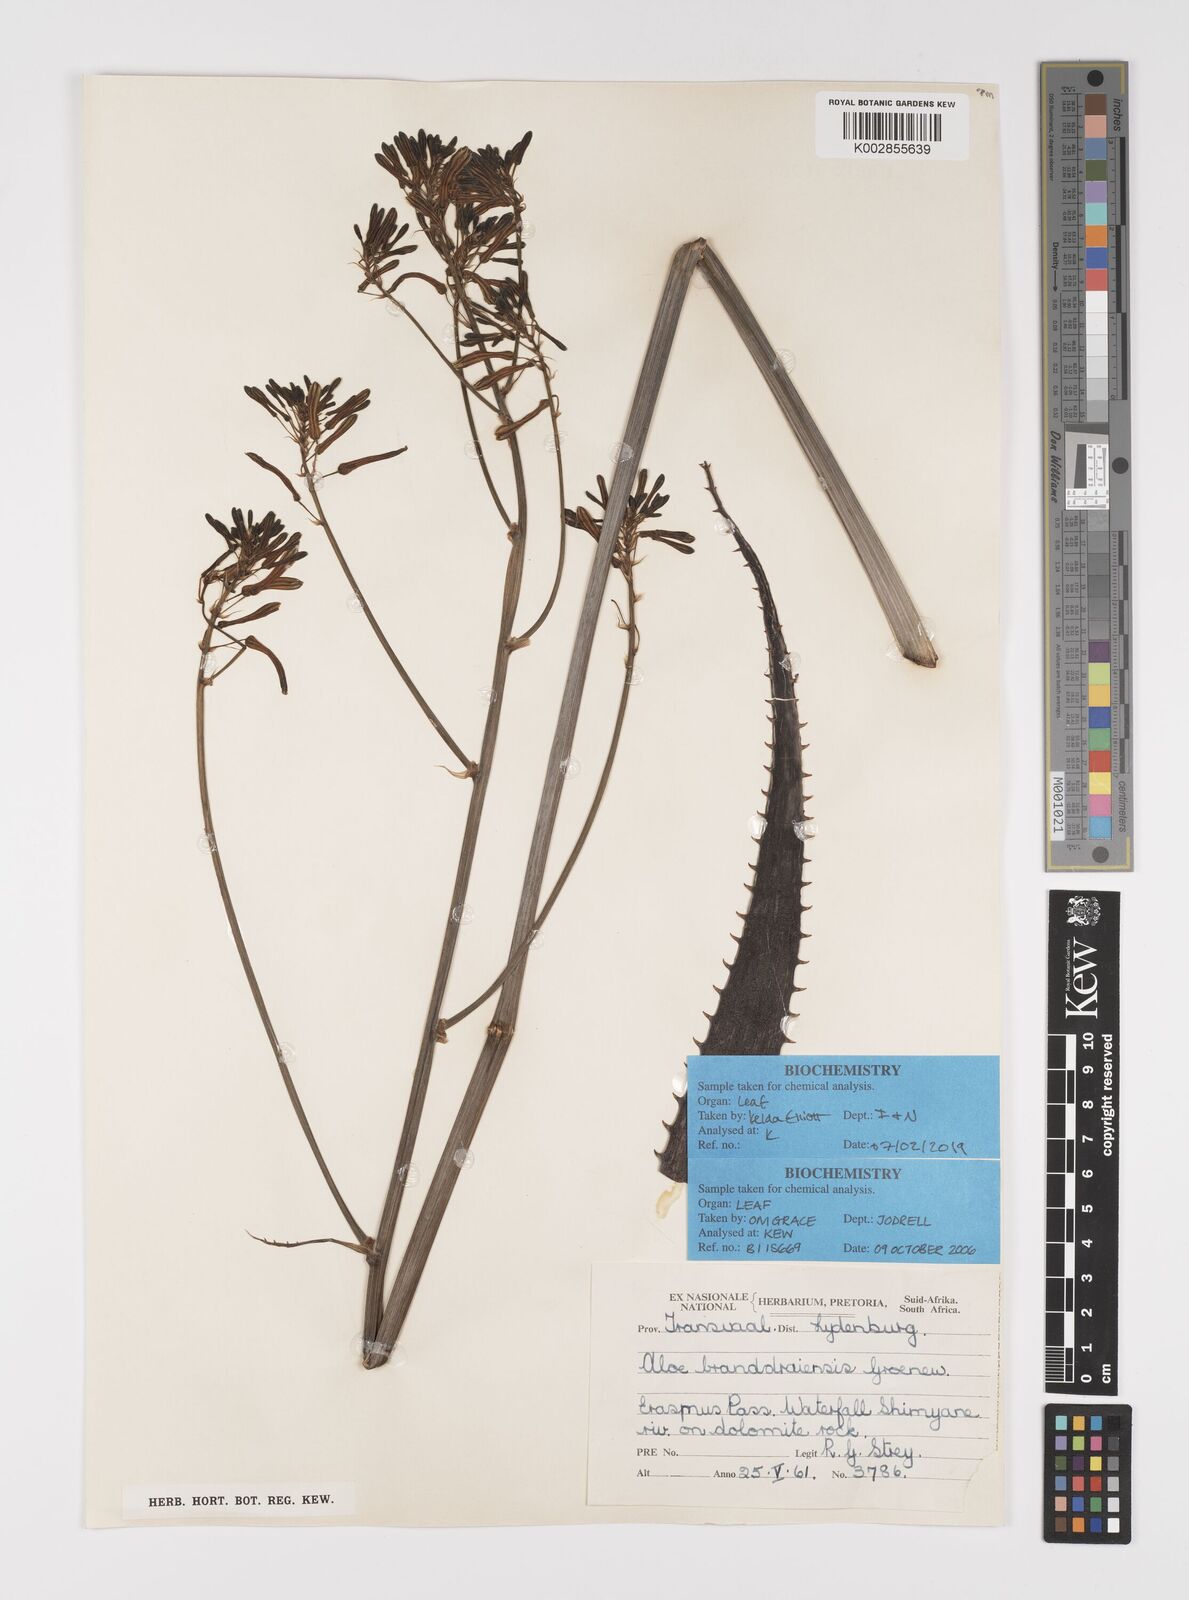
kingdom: Plantae
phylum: Tracheophyta
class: Liliopsida
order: Asparagales
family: Asphodelaceae
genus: Aloe
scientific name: Aloe branddraaiensis
